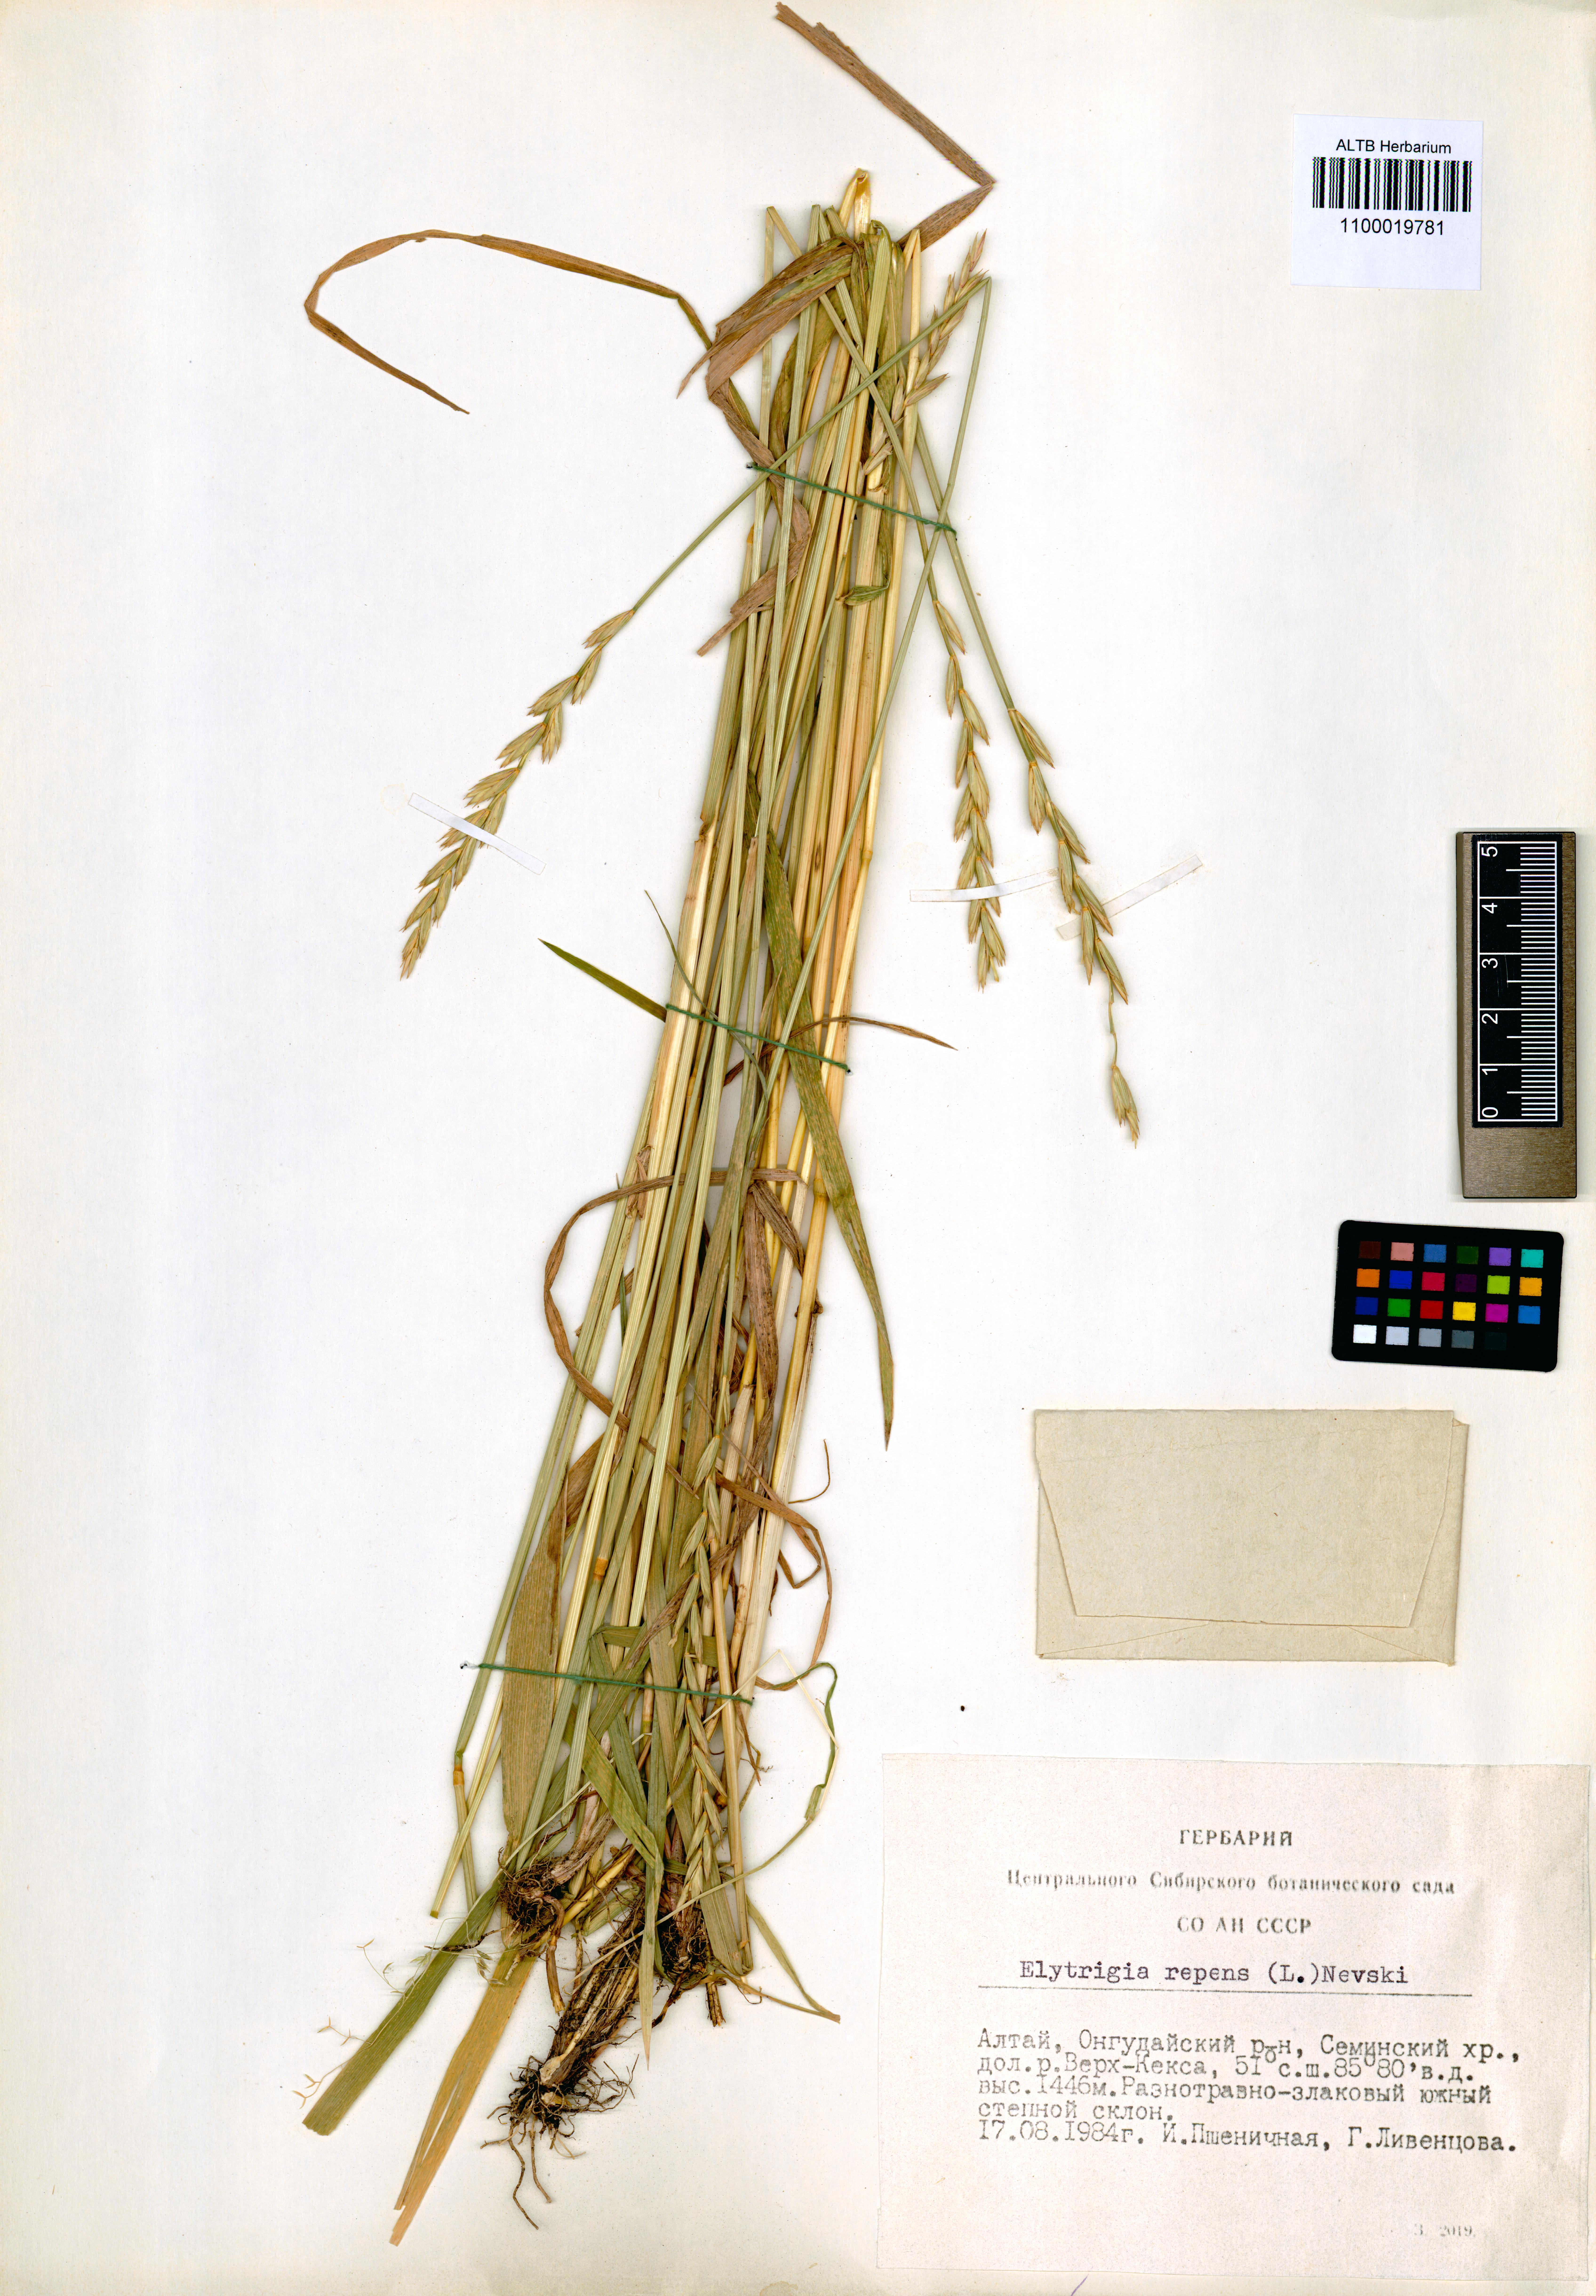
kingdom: Plantae
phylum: Tracheophyta
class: Liliopsida
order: Poales
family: Poaceae
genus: Elymus
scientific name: Elymus repens
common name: Quackgrass
